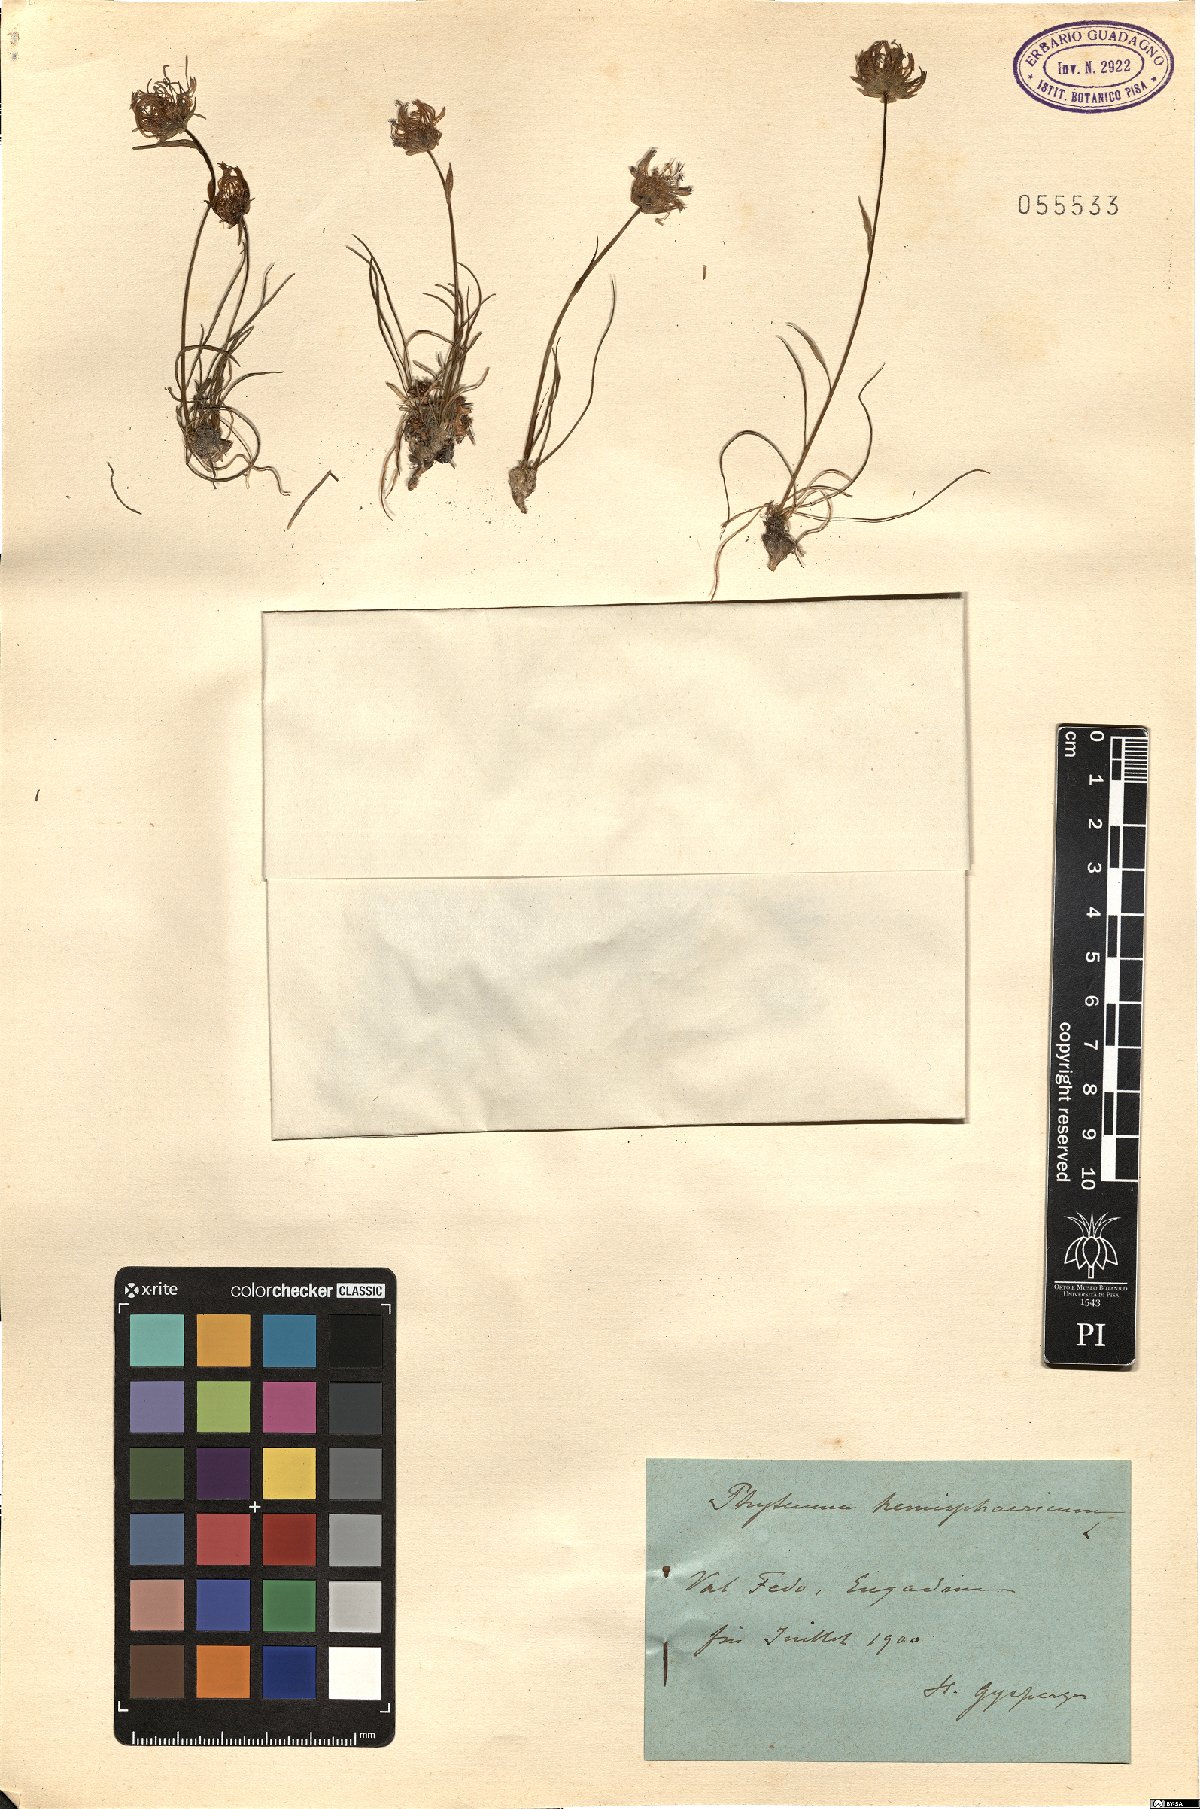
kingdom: Plantae
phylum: Tracheophyta
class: Magnoliopsida
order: Asterales
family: Campanulaceae
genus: Phyteuma
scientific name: Phyteuma hemisphaericum
